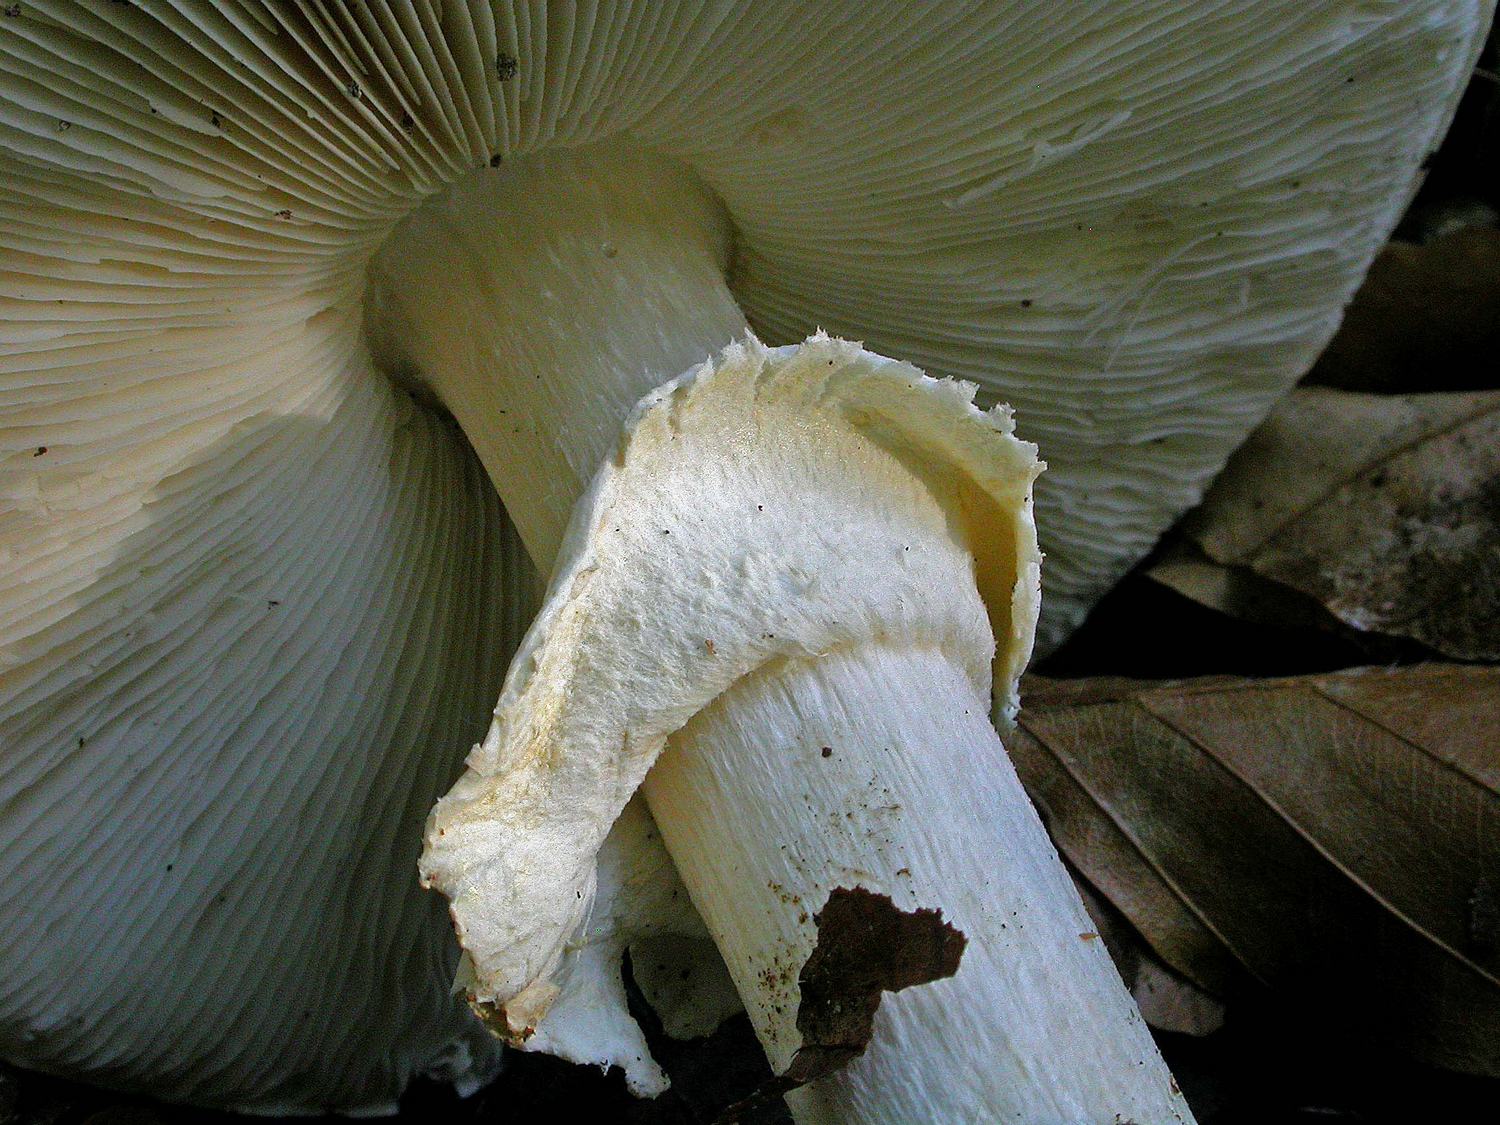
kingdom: Fungi
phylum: Basidiomycota
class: Agaricomycetes
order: Agaricales
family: Amanitaceae
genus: Limacellopsis
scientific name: Limacellopsis guttata
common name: tåre-snekkehat
